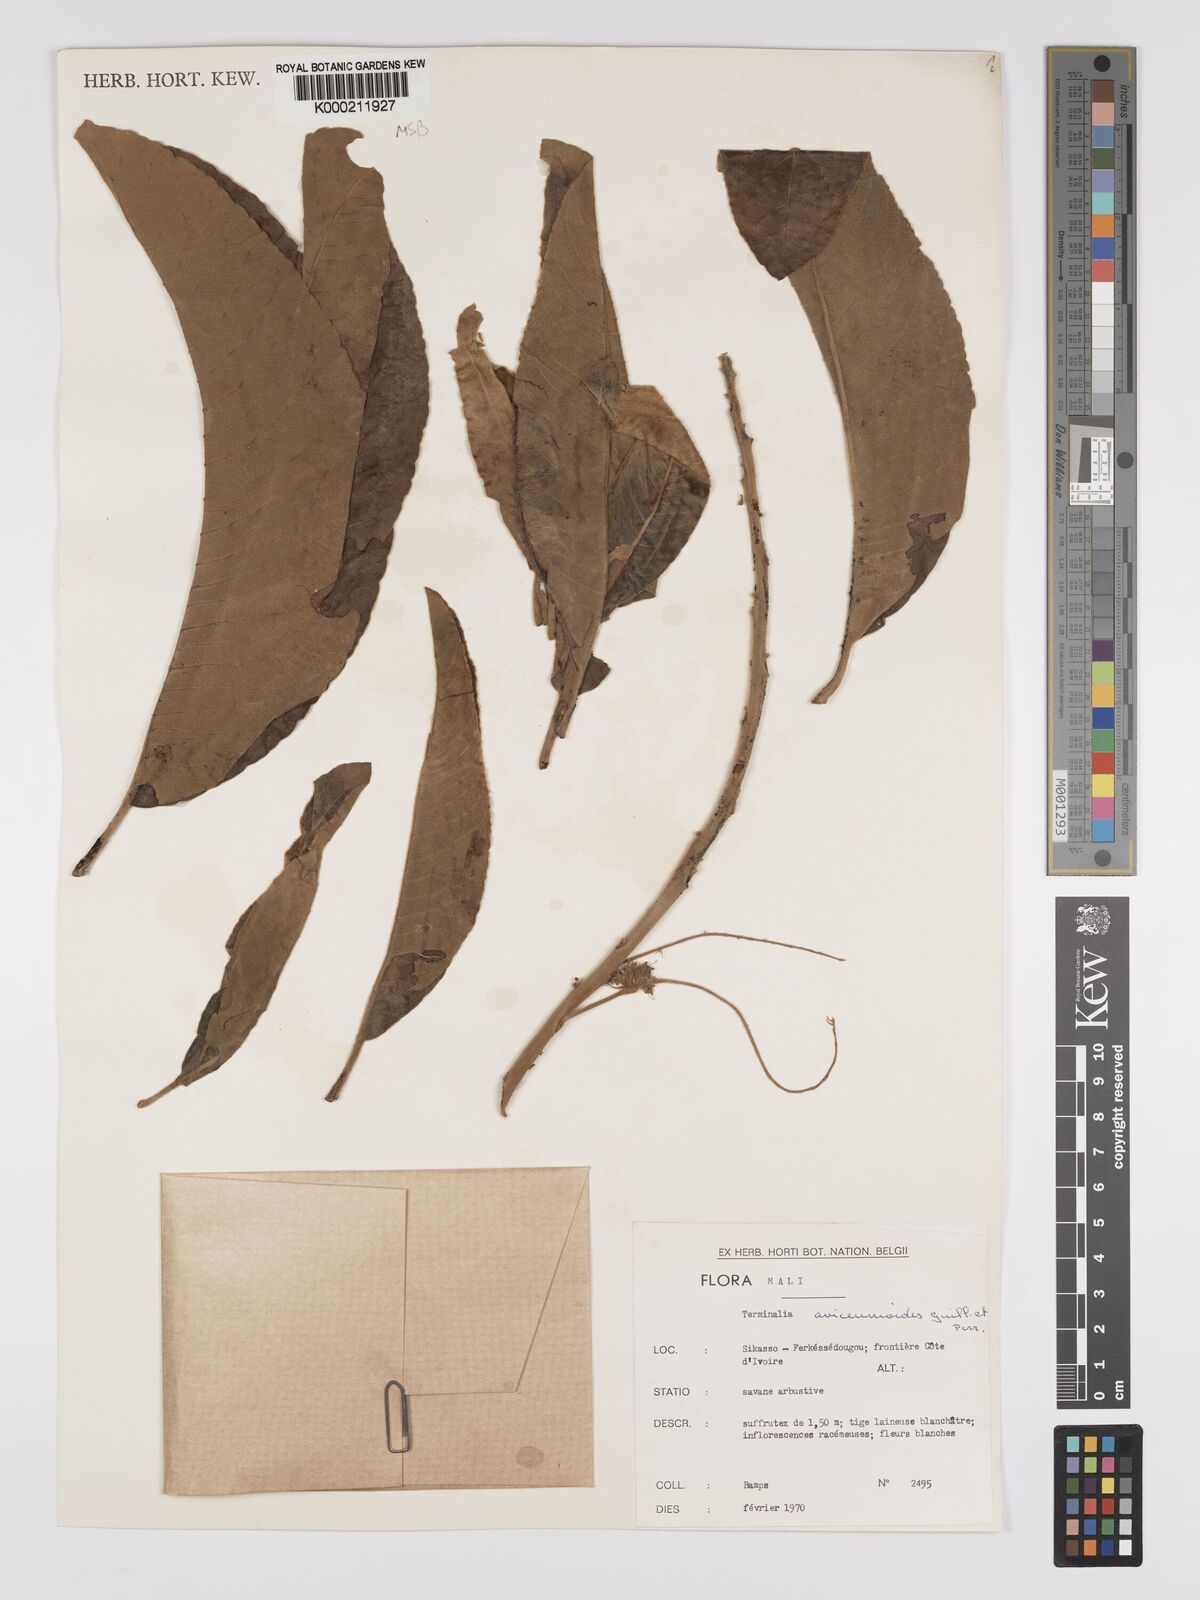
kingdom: Plantae
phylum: Tracheophyta
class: Magnoliopsida
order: Myrtales
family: Combretaceae
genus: Terminalia
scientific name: Terminalia avicennioides
